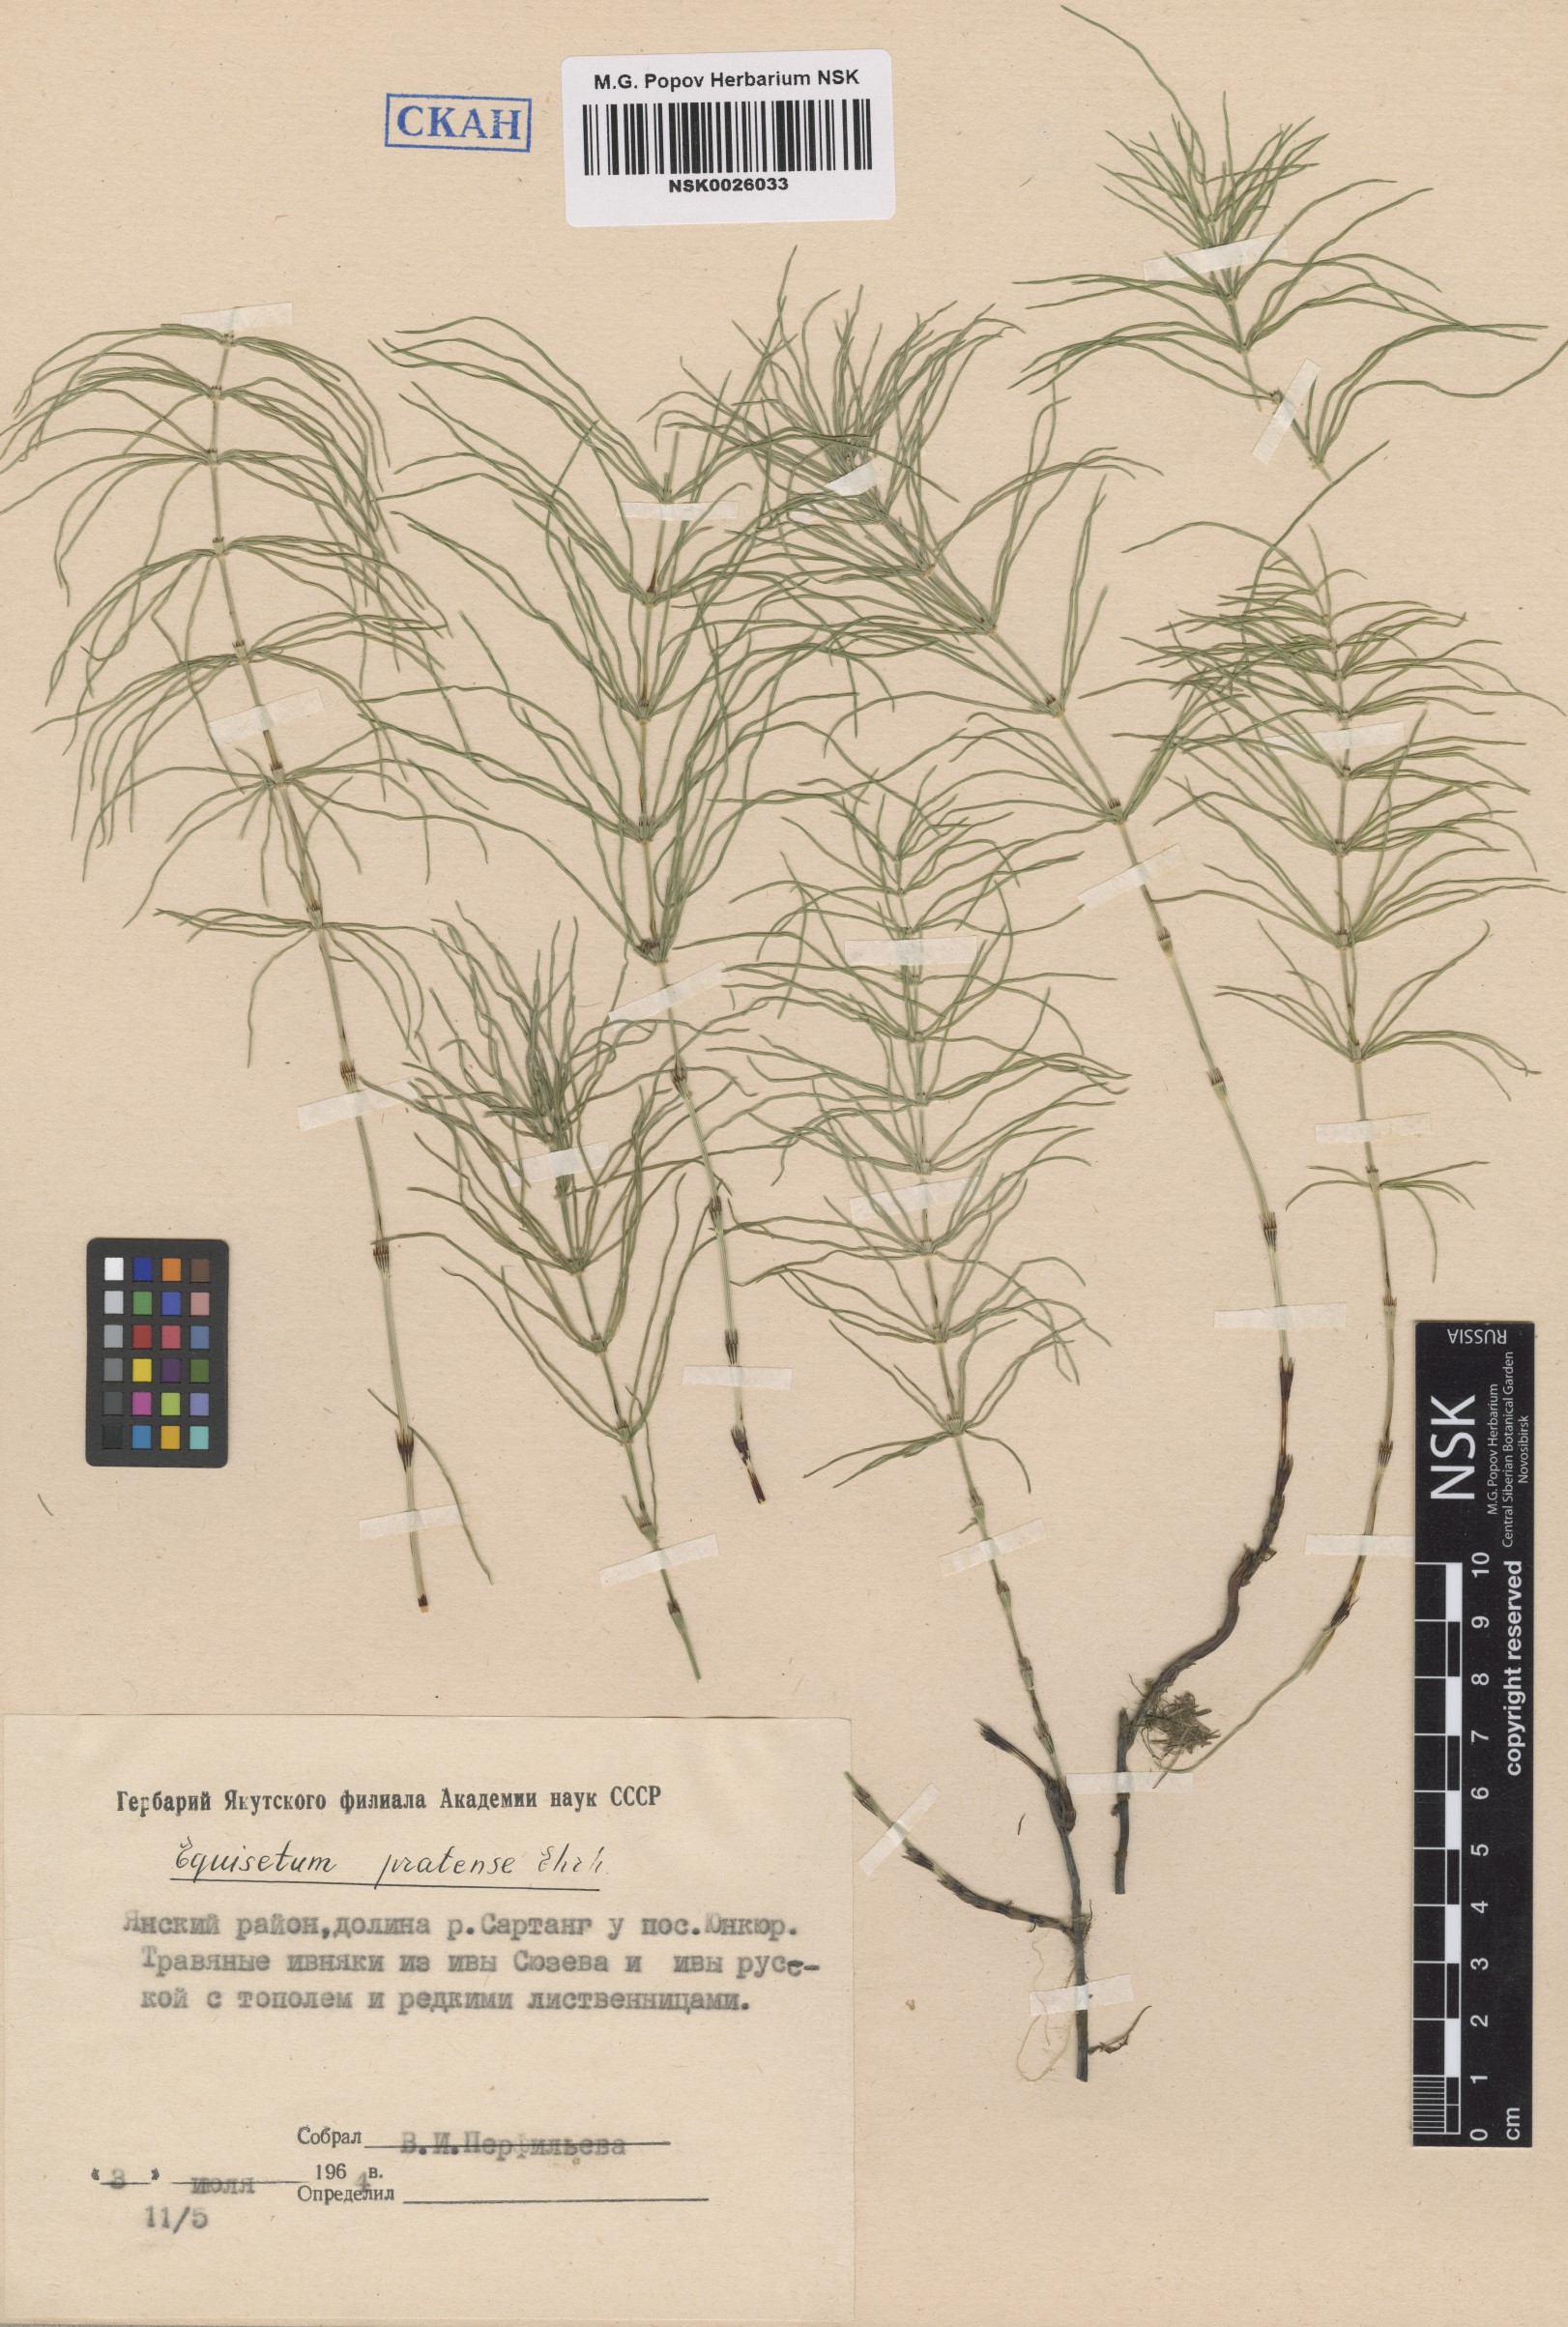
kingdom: Plantae
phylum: Tracheophyta
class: Polypodiopsida
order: Equisetales
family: Equisetaceae
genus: Equisetum
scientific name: Equisetum pratense
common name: Meadow horsetail
